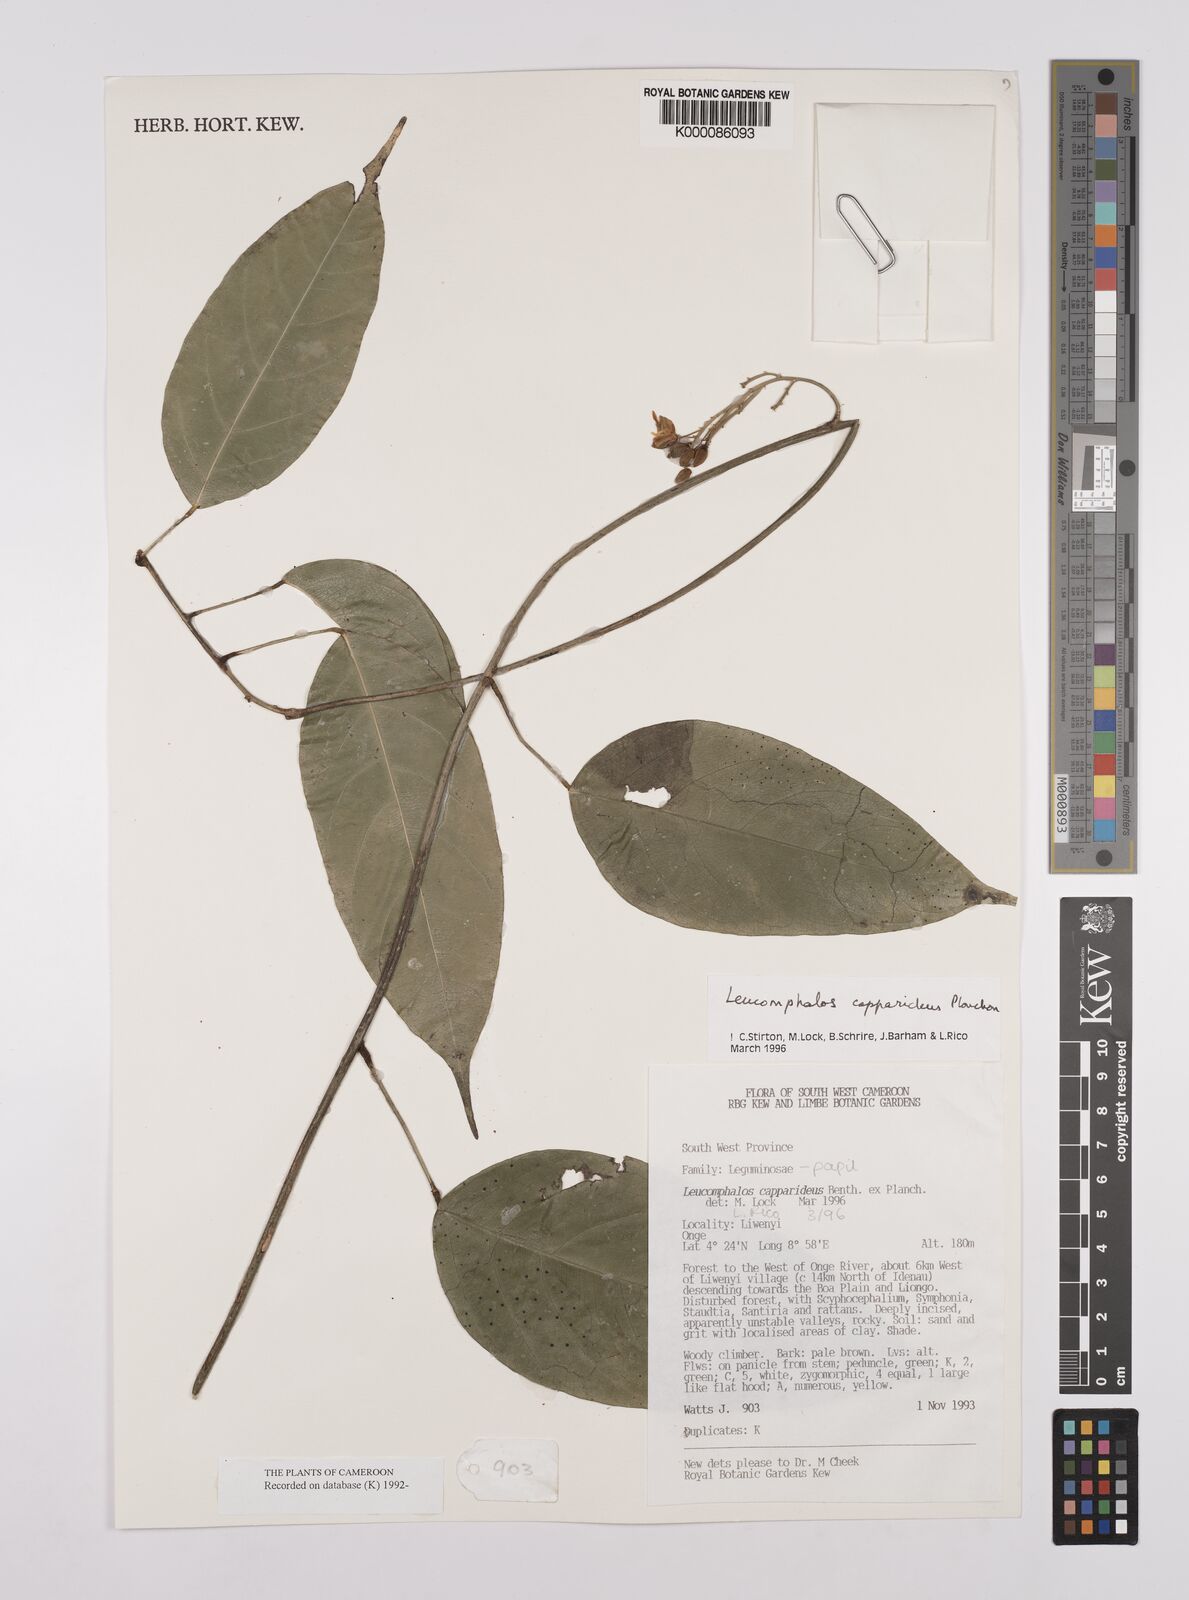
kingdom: Plantae
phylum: Tracheophyta
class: Magnoliopsida
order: Fabales
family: Fabaceae
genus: Leucomphalos
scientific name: Leucomphalos
